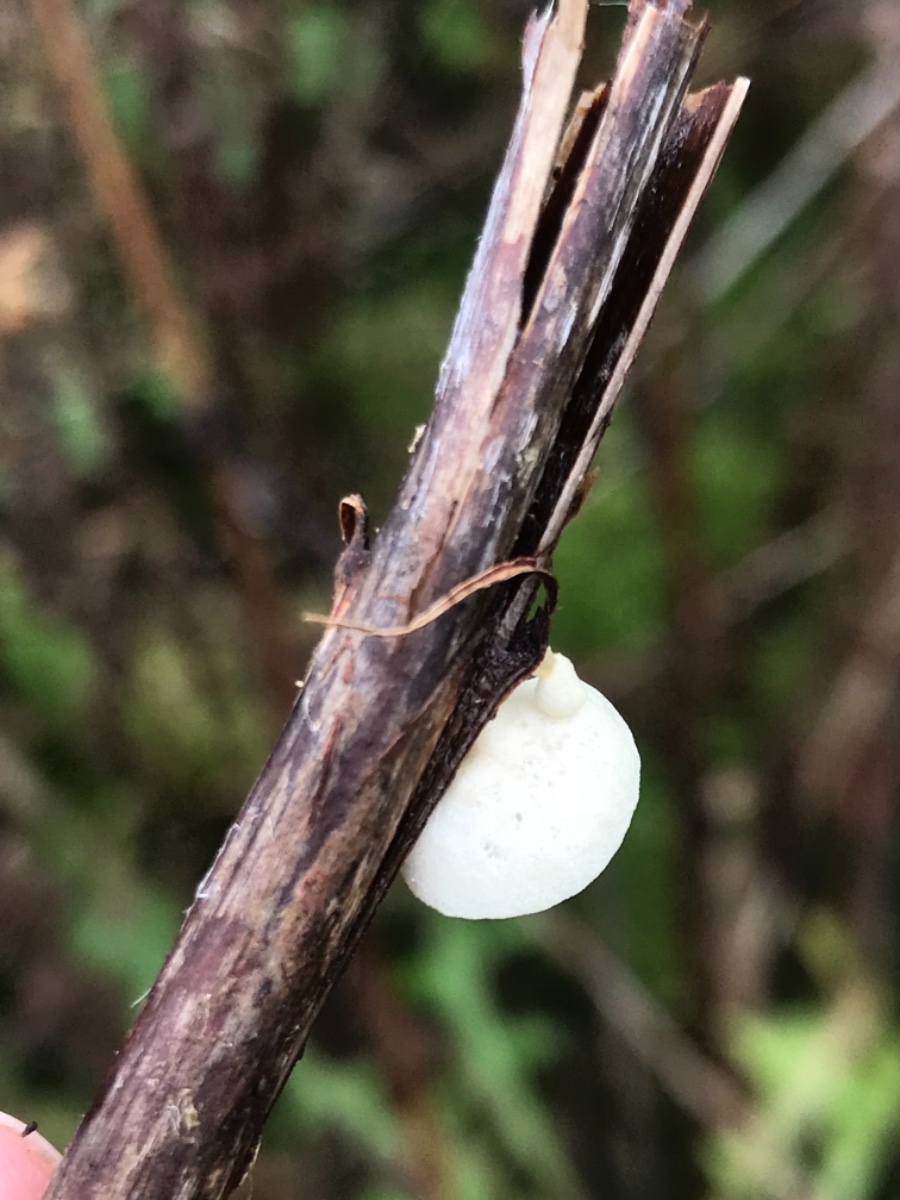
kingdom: Fungi
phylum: Basidiomycota
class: Agaricomycetes
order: Agaricales
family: Crepidotaceae
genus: Crepidotus
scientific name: Crepidotus
